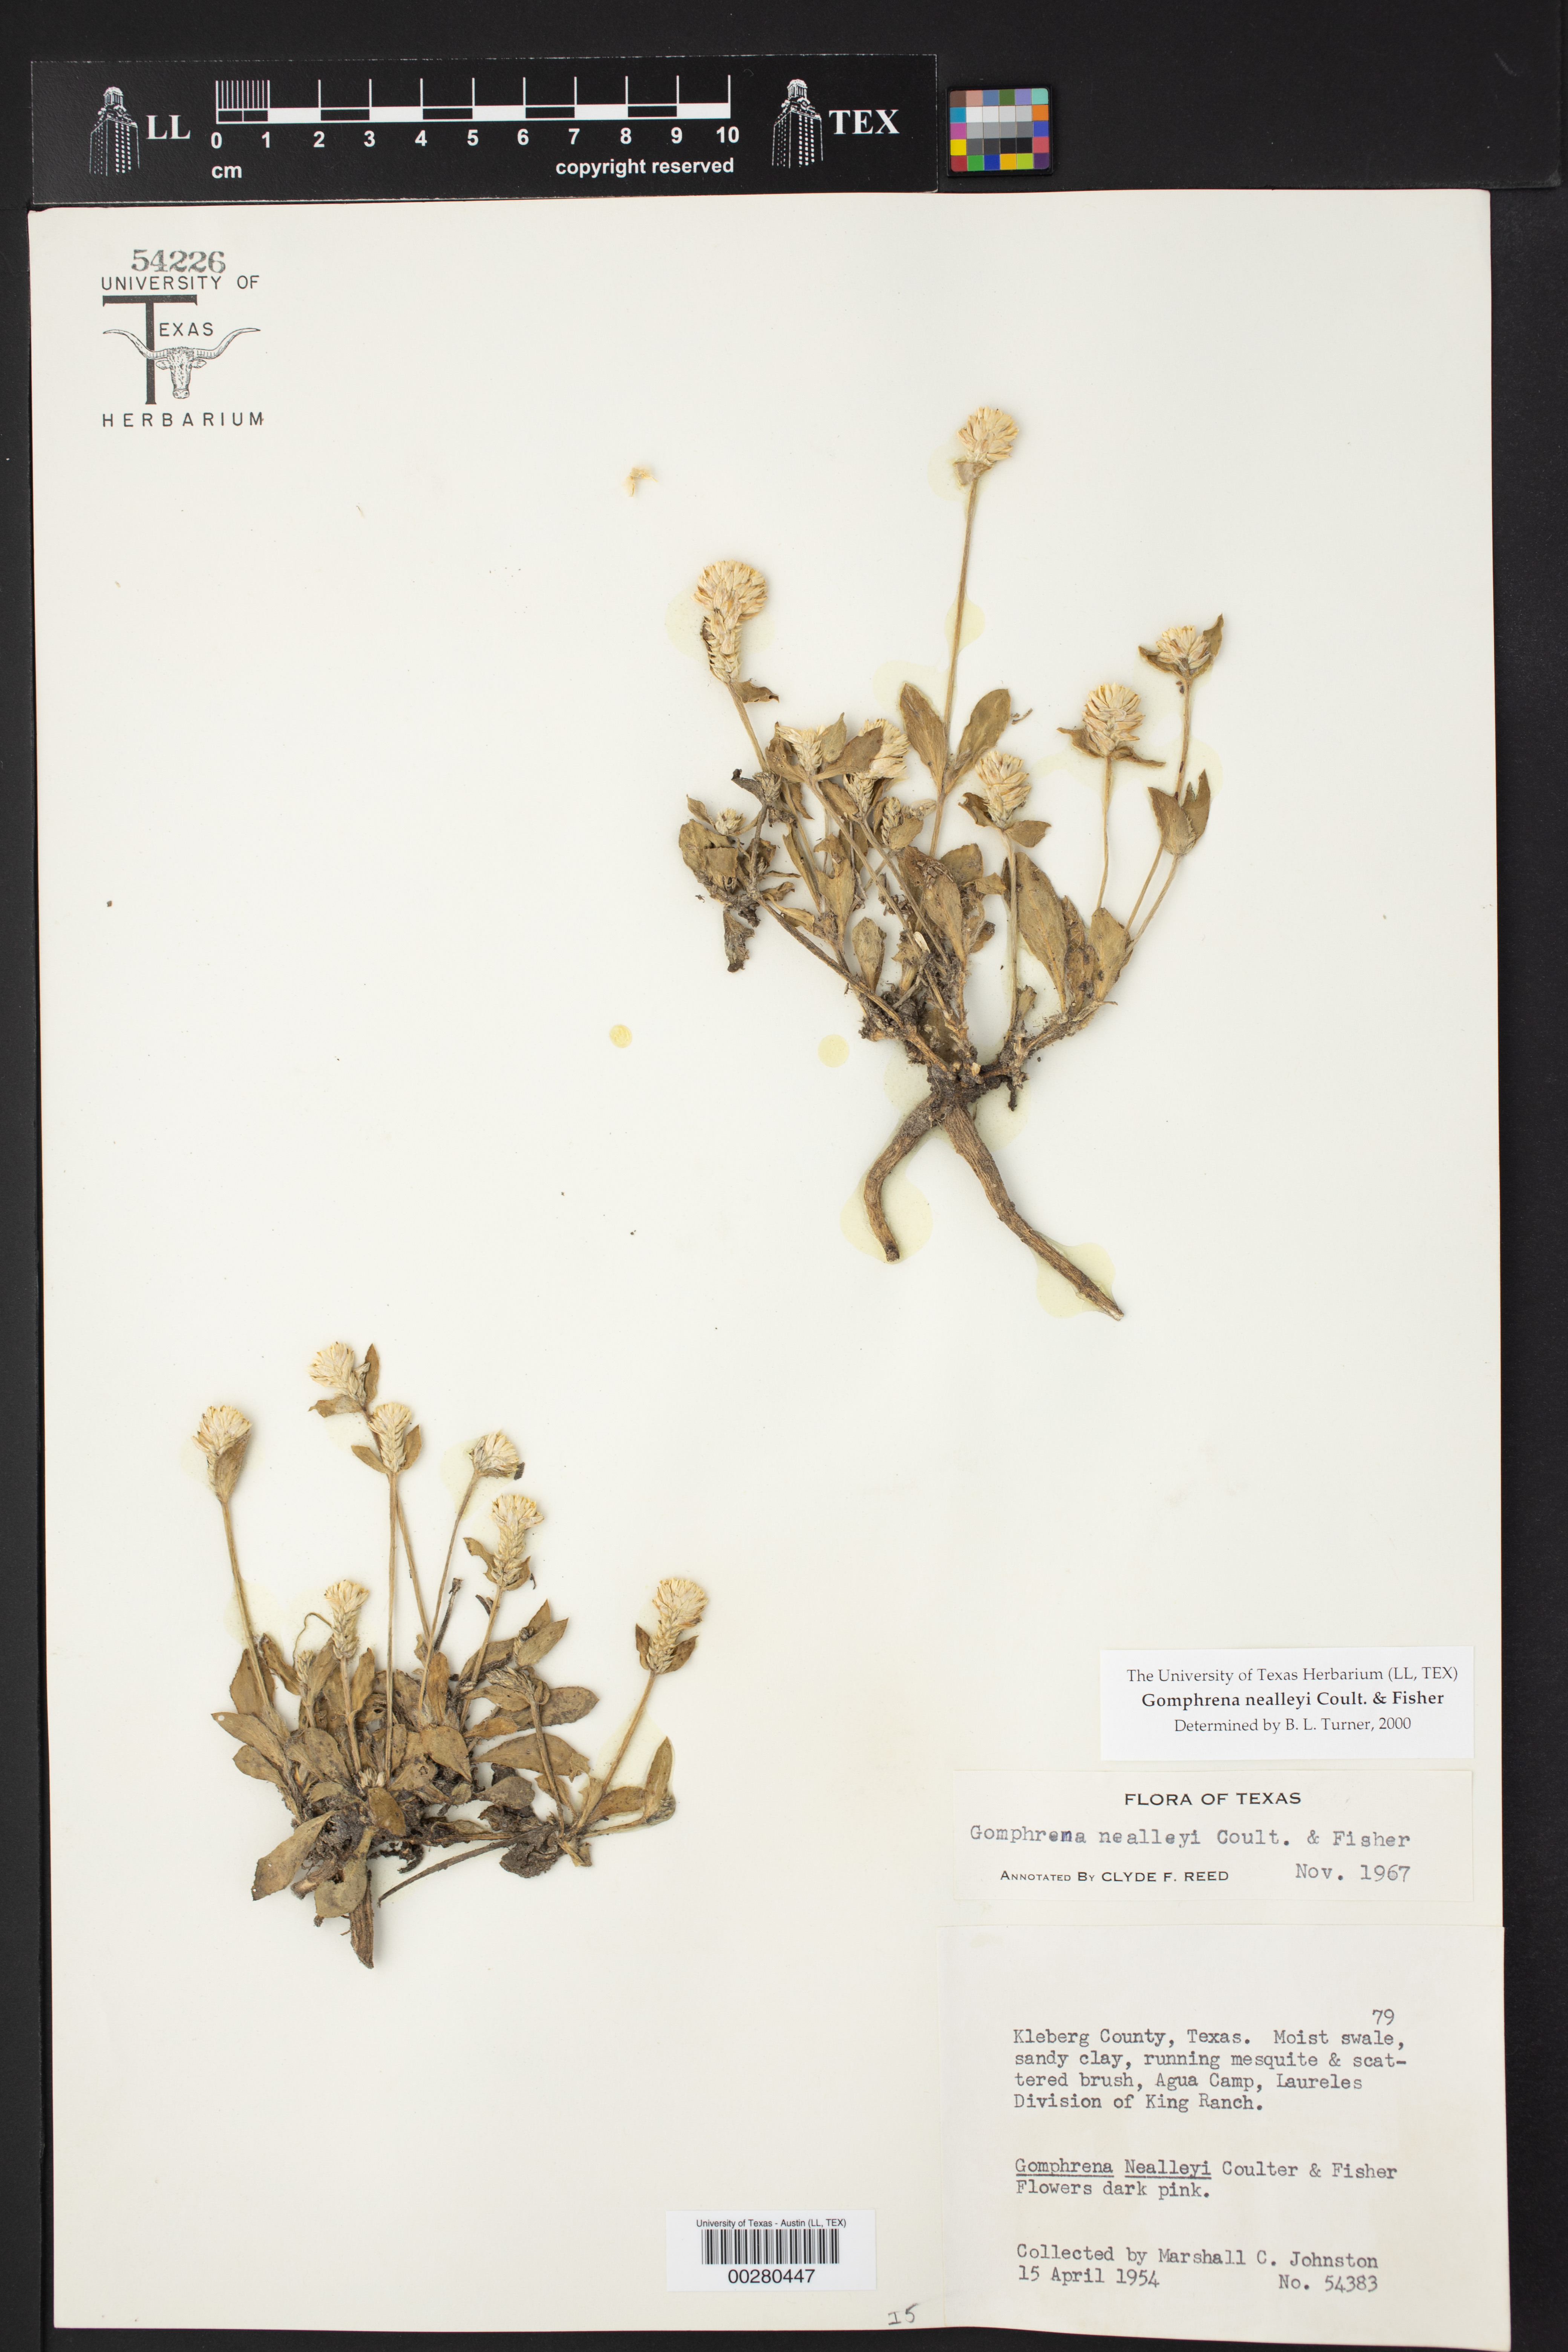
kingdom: Plantae
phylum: Tracheophyta
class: Magnoliopsida
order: Caryophyllales
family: Amaranthaceae
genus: Gomphrena
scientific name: Gomphrena nealleyi
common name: Nealley's globe-amaranth
